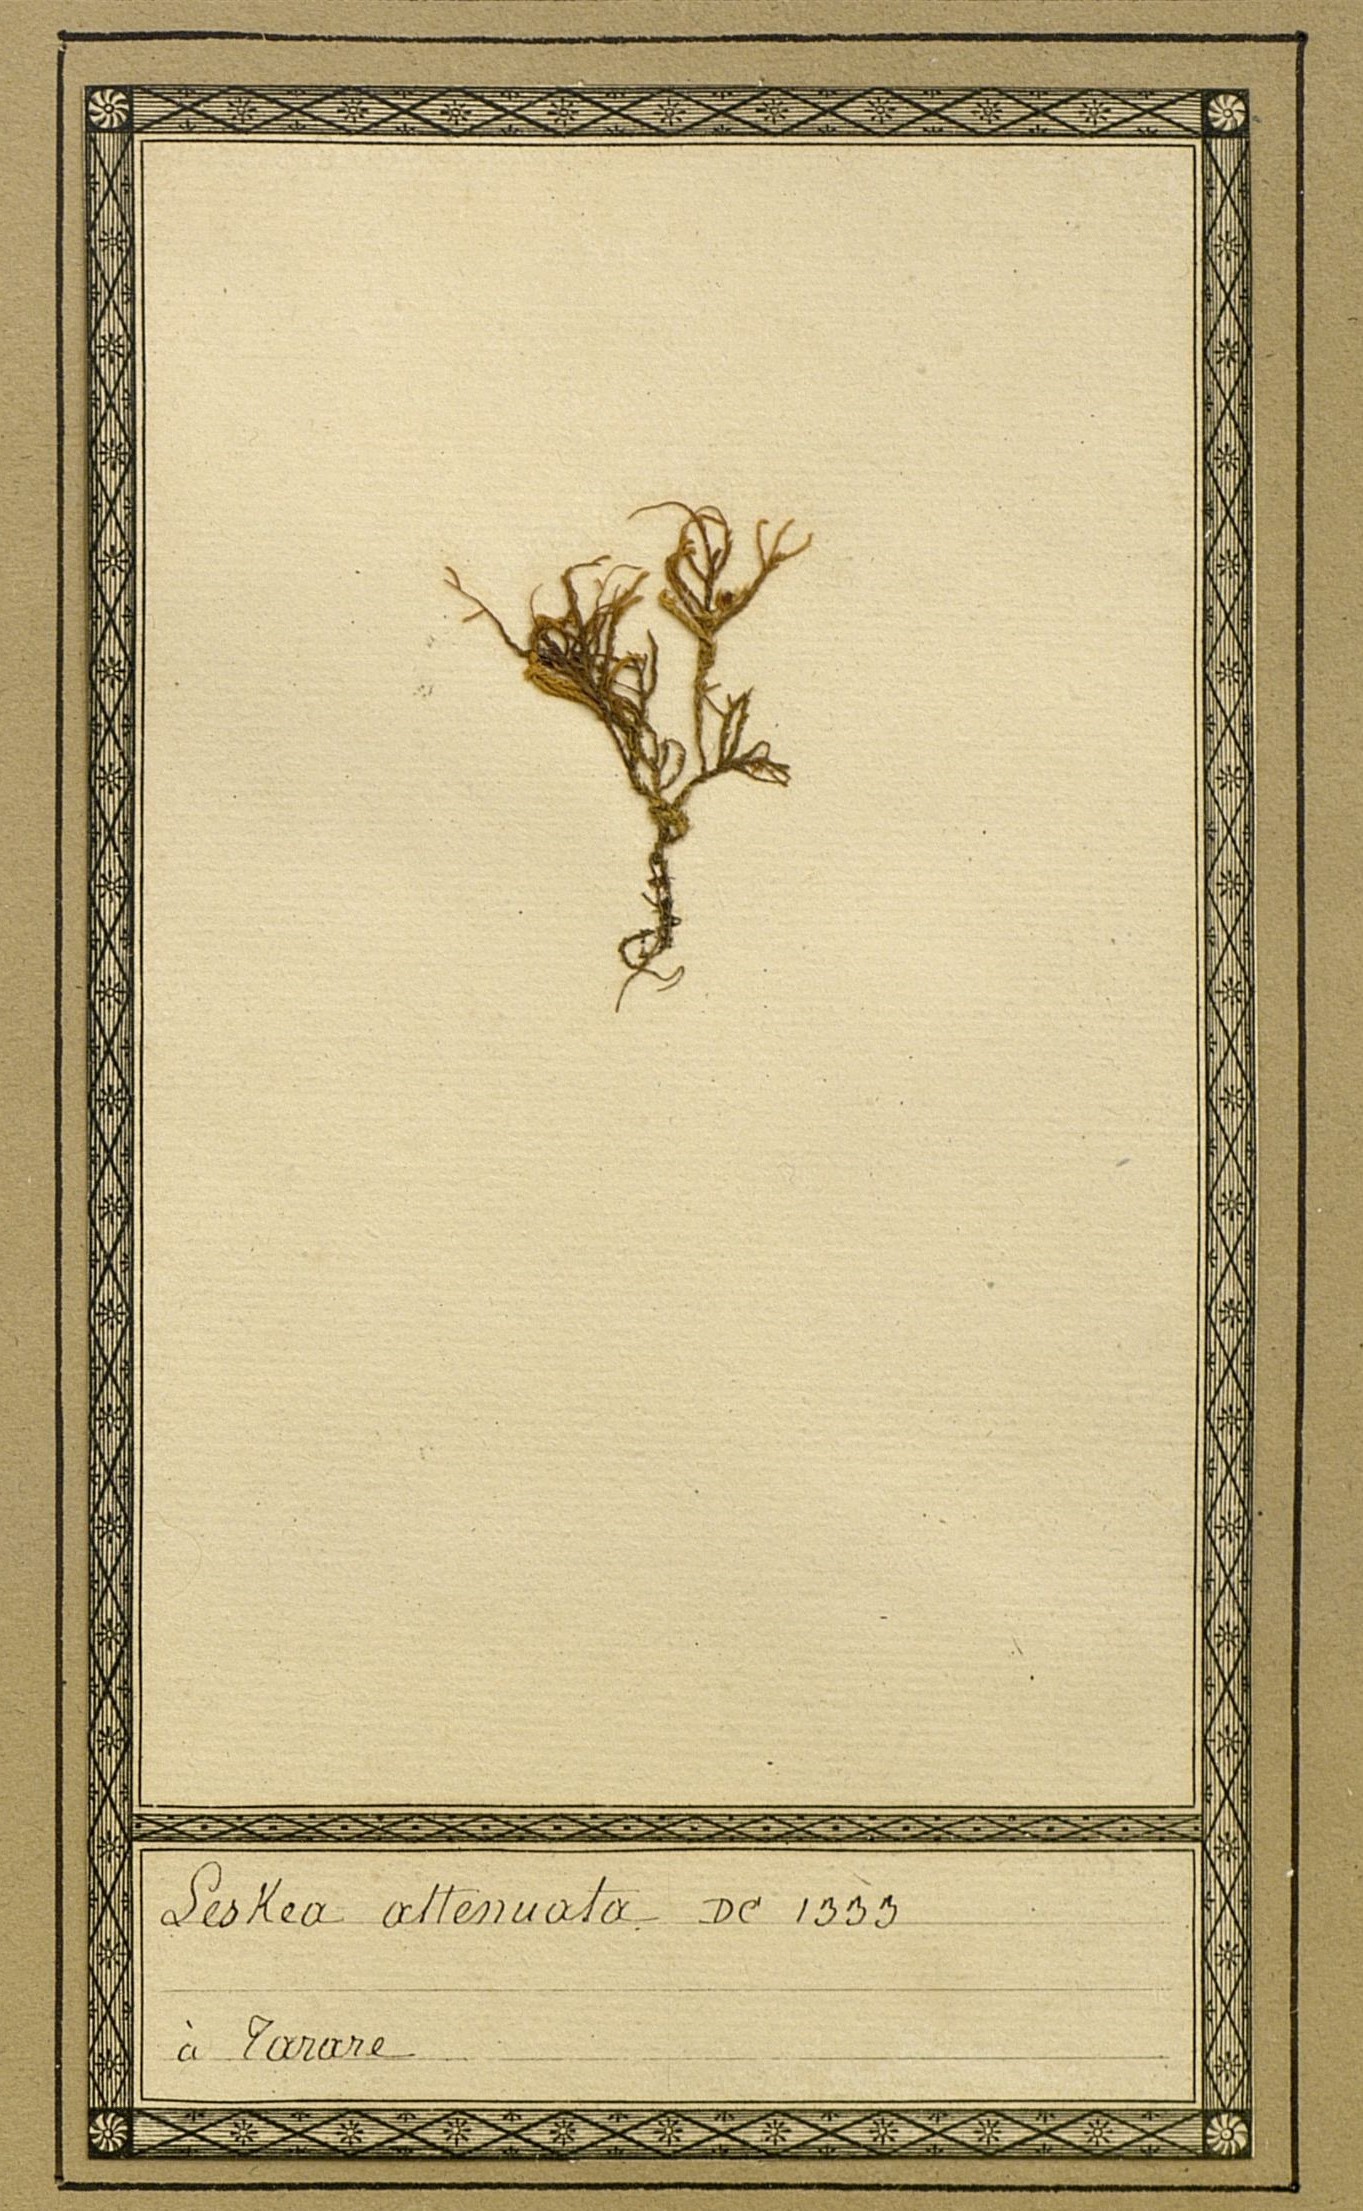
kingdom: Plantae
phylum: Bryophyta
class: Bryopsida
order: Hypnales
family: Neckeraceae
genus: Pseudanomodon
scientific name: Pseudanomodon attenuatus
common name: Tree-skirt moss
